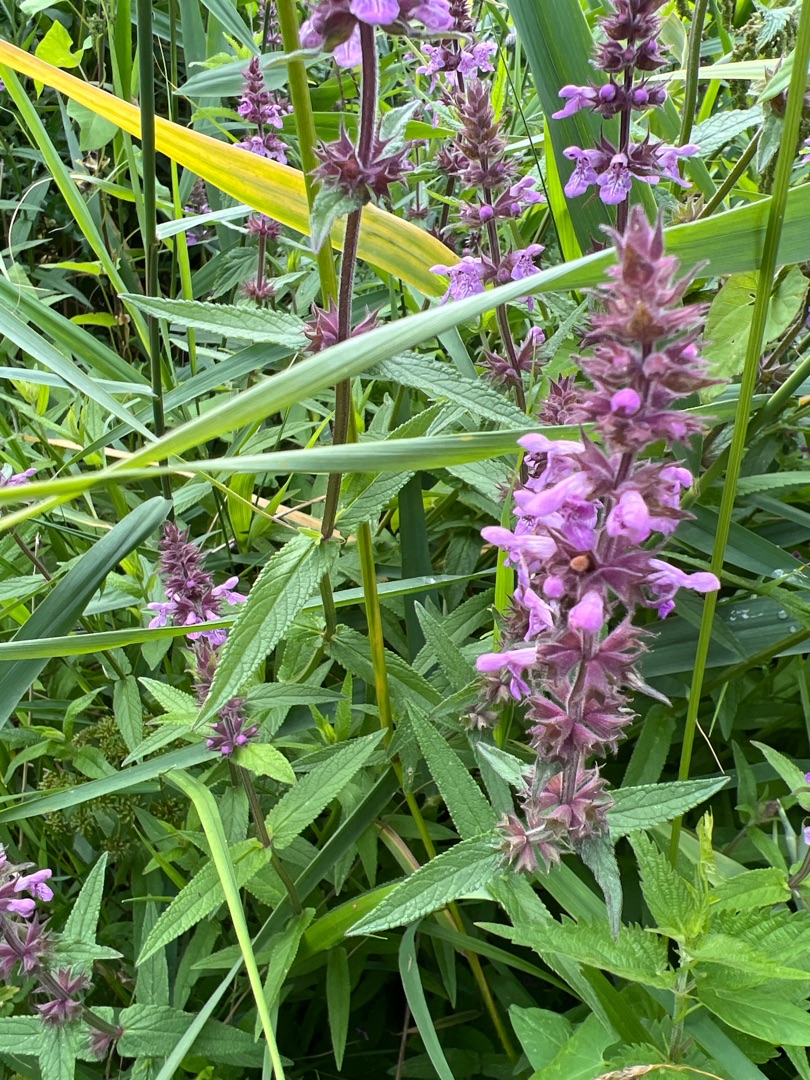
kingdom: Plantae
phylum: Tracheophyta
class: Magnoliopsida
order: Lamiales
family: Lamiaceae
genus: Stachys
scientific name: Stachys palustris
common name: Kær-galtetand
